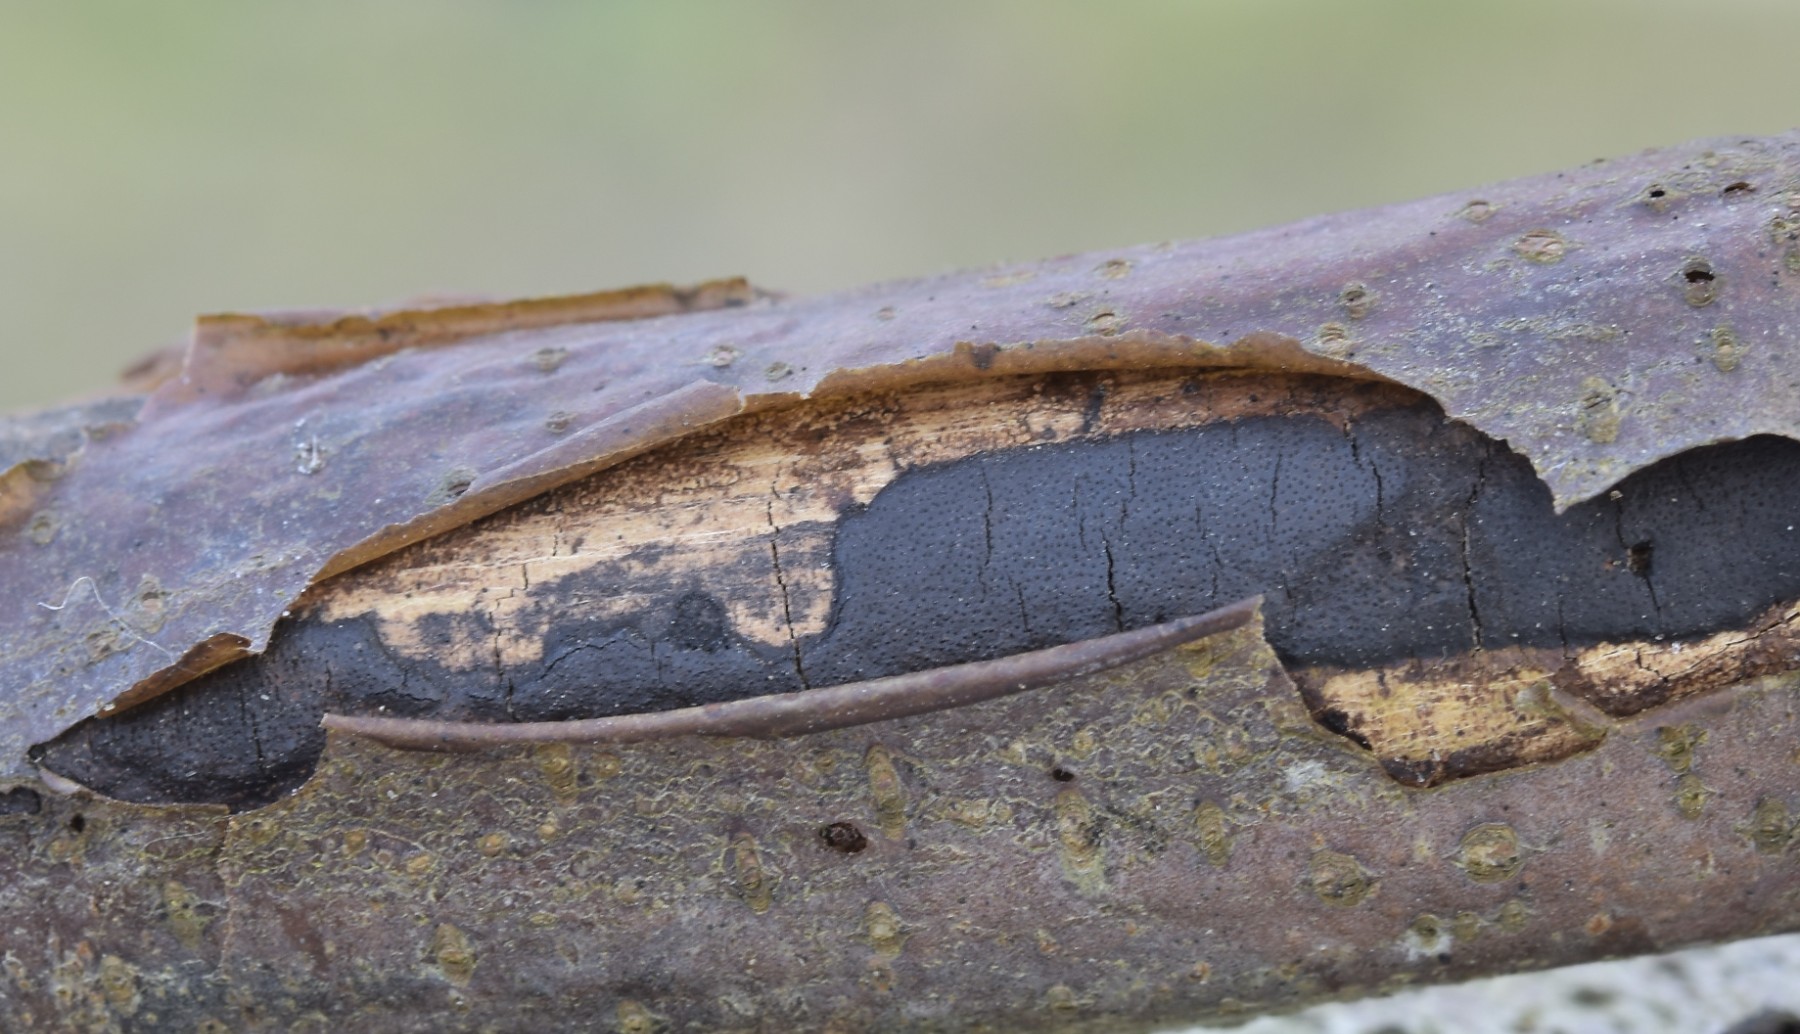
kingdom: Fungi
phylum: Ascomycota
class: Sordariomycetes
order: Xylariales
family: Diatrypaceae
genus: Diatrype
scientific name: Diatrype decorticata
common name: barksprænger-kulskorpe
